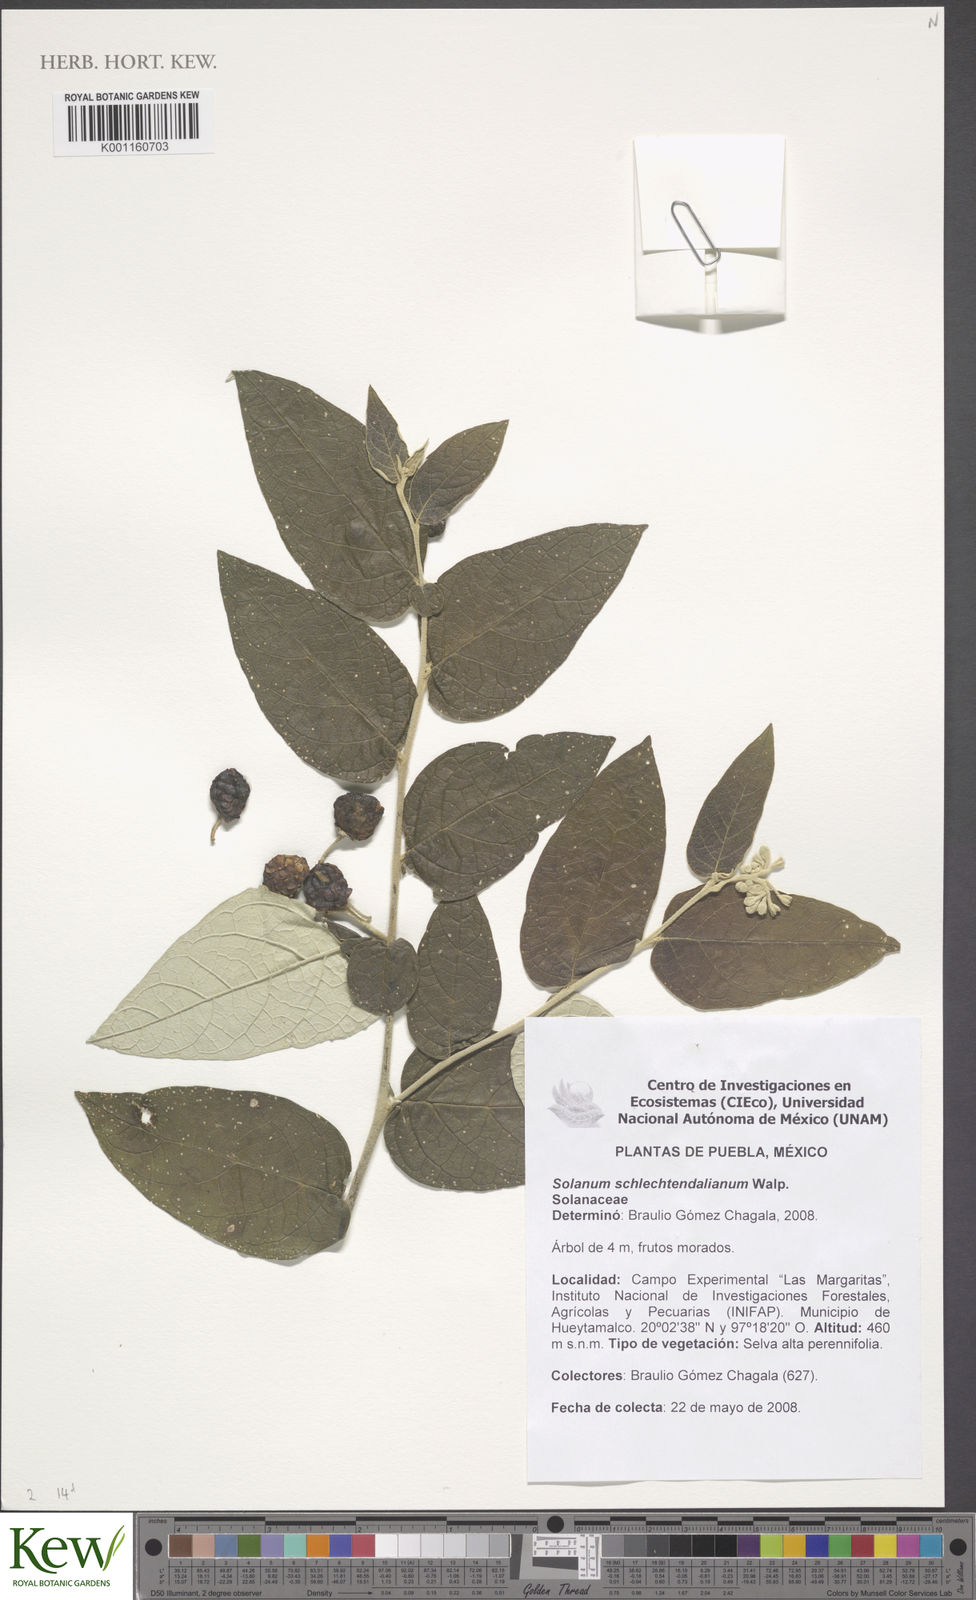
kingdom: Plantae
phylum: Tracheophyta
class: Magnoliopsida
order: Solanales
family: Solanaceae
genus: Solanum
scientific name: Solanum schlechtendalianum
